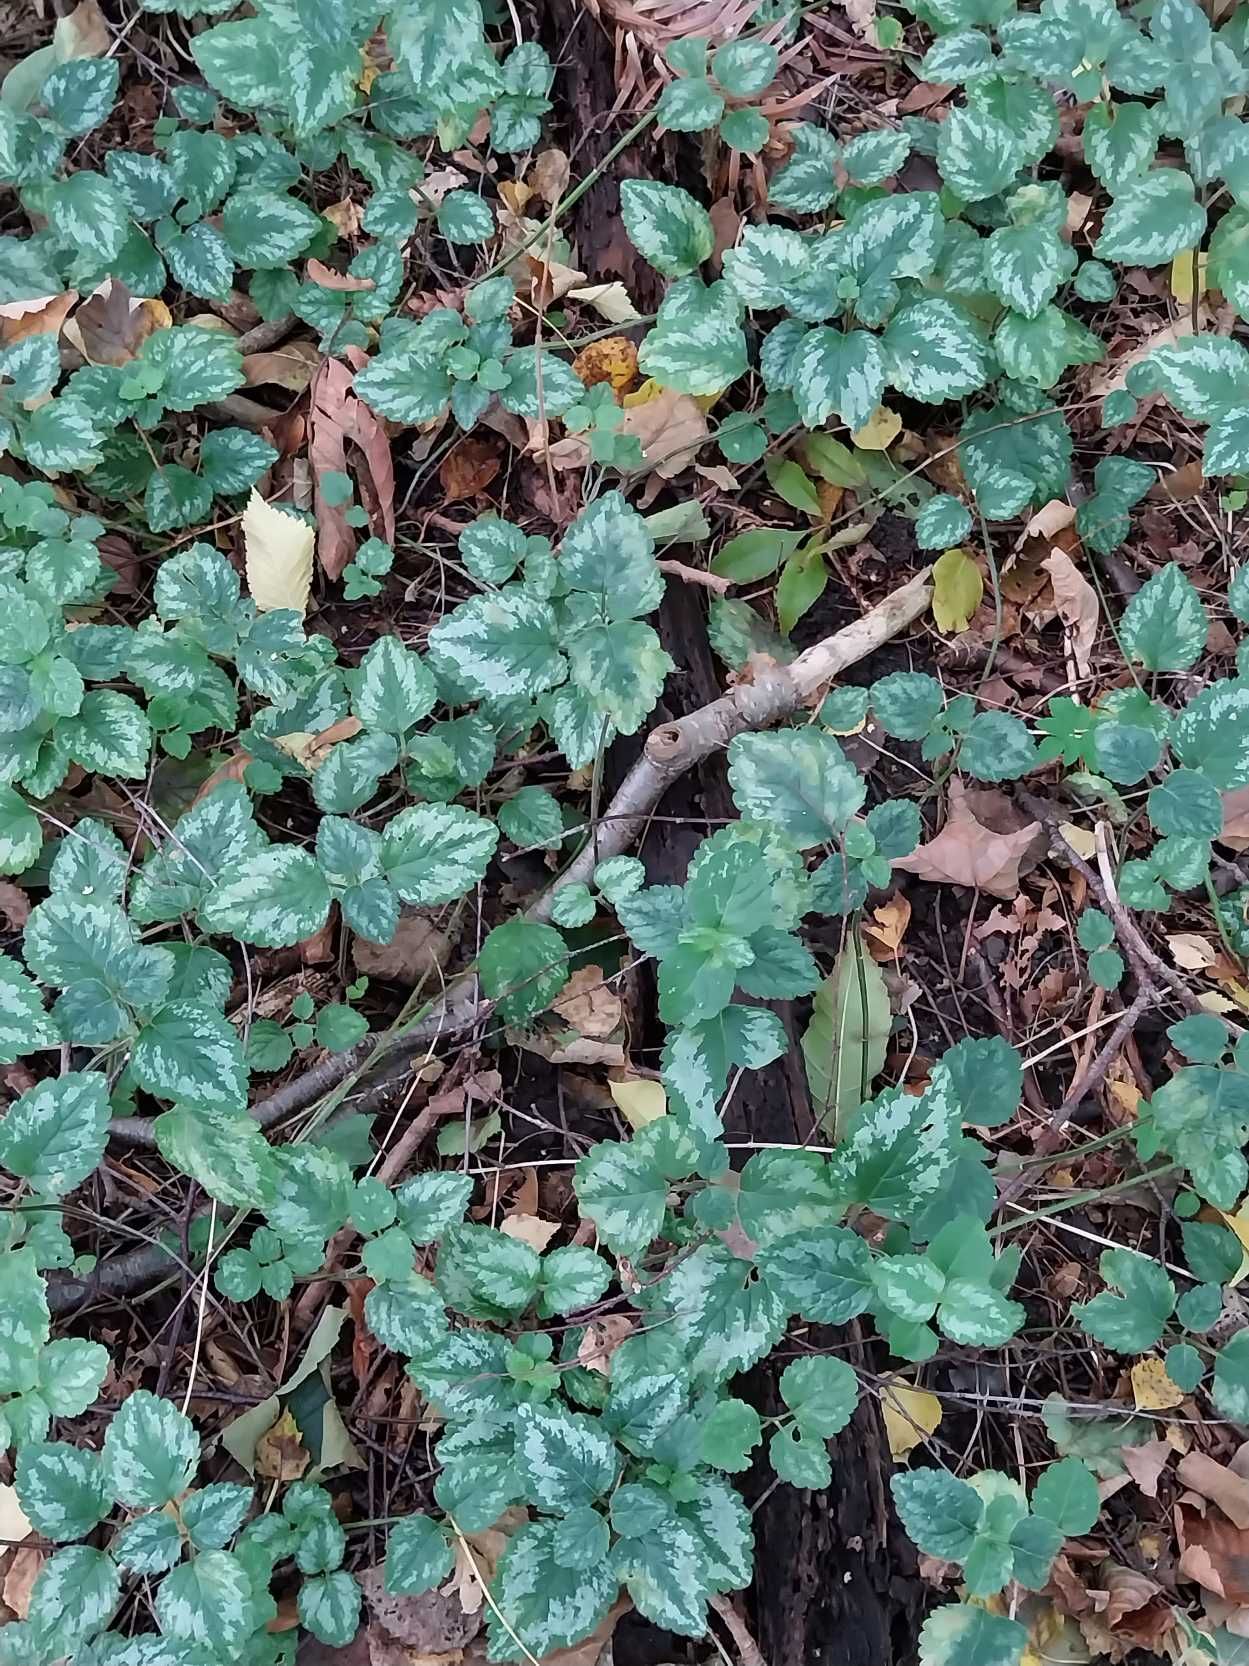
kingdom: Plantae
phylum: Tracheophyta
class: Magnoliopsida
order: Lamiales
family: Lamiaceae
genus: Lamium
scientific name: Lamium galeobdolon
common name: Have-guldnælde
